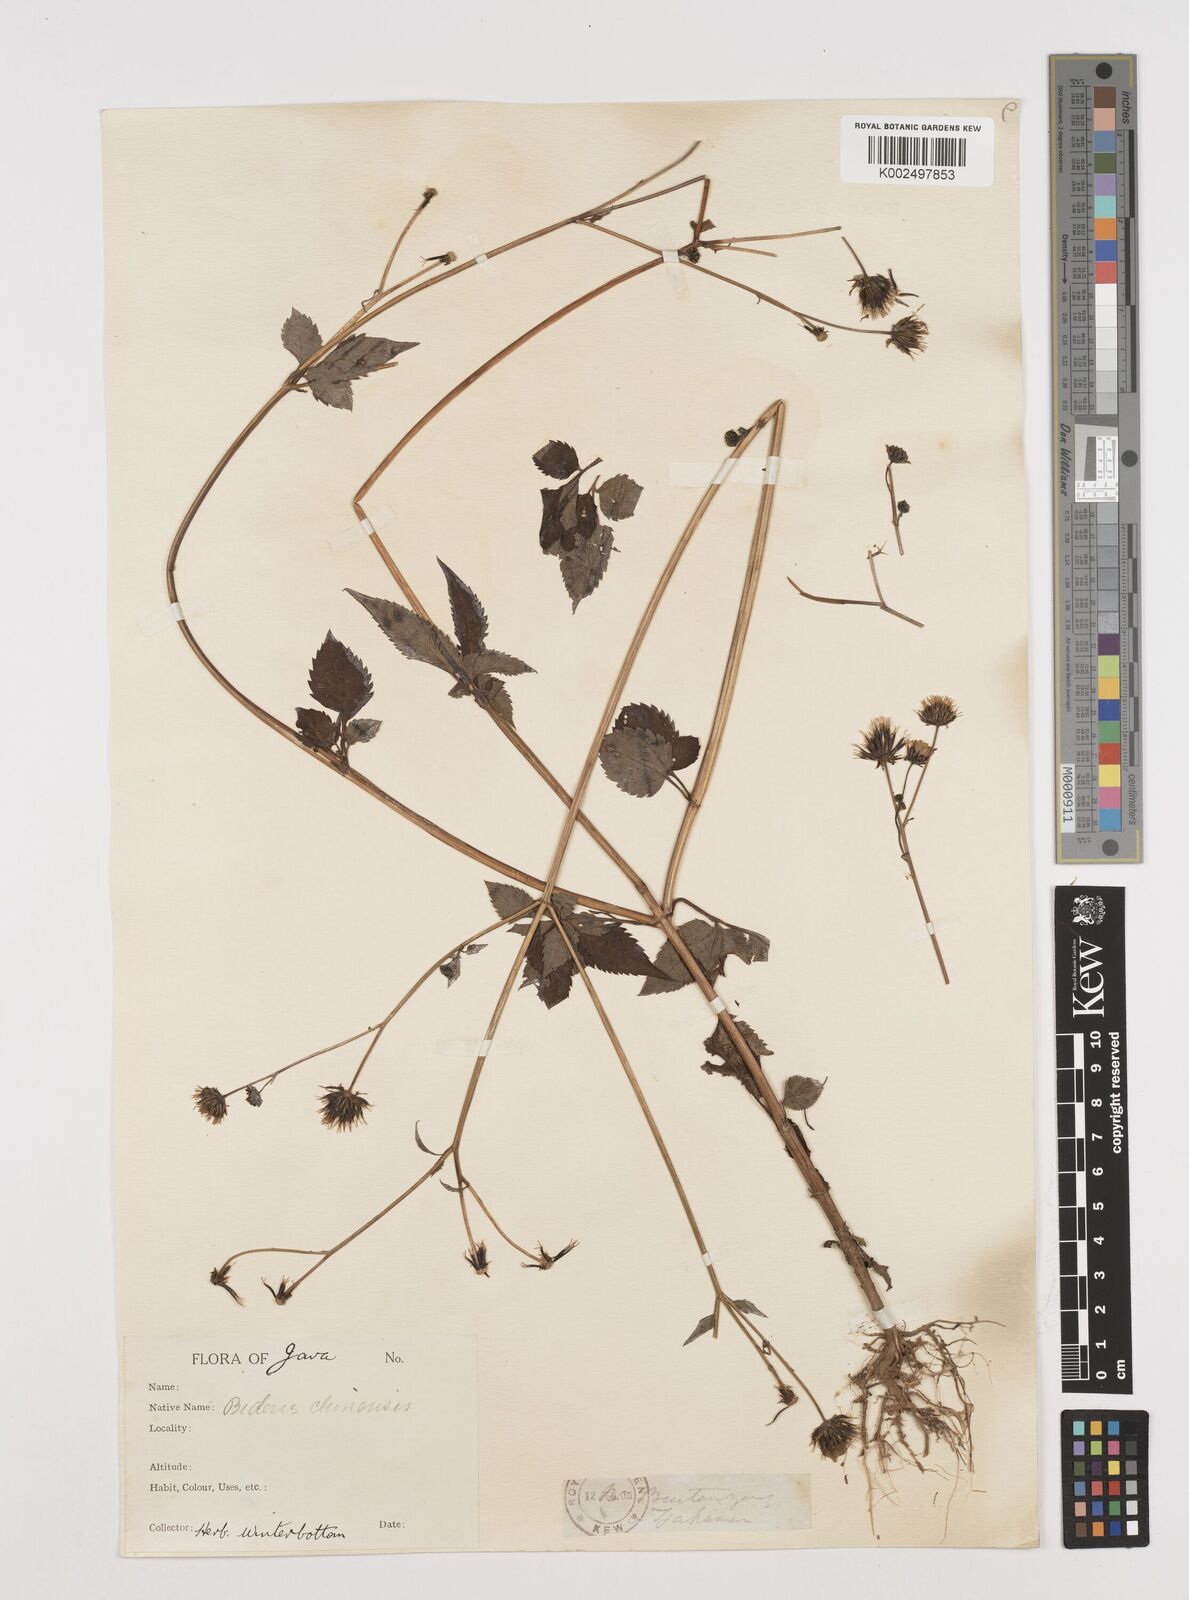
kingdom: Plantae
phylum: Tracheophyta
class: Magnoliopsida
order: Asterales
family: Asteraceae
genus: Bidens
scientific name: Bidens biternata
